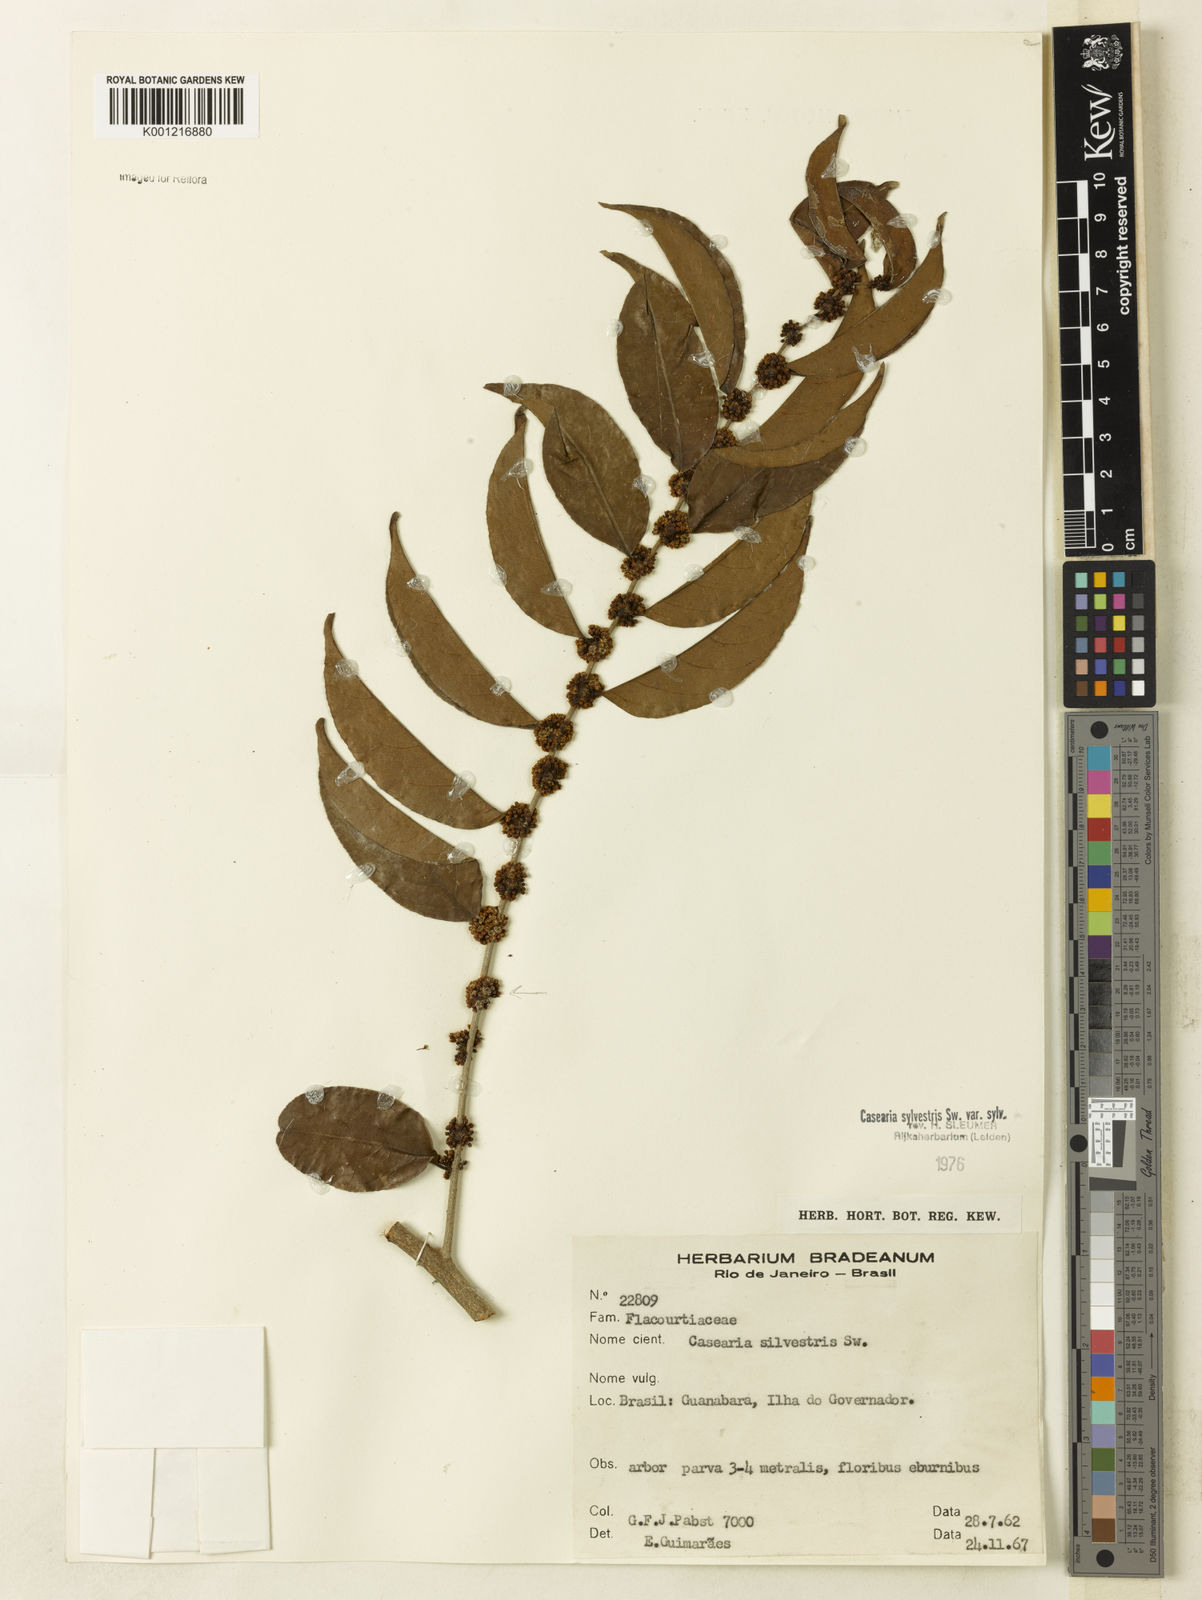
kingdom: Plantae
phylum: Tracheophyta
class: Magnoliopsida
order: Malpighiales
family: Salicaceae
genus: Casearia
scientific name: Casearia sylvestris
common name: Wild sage
